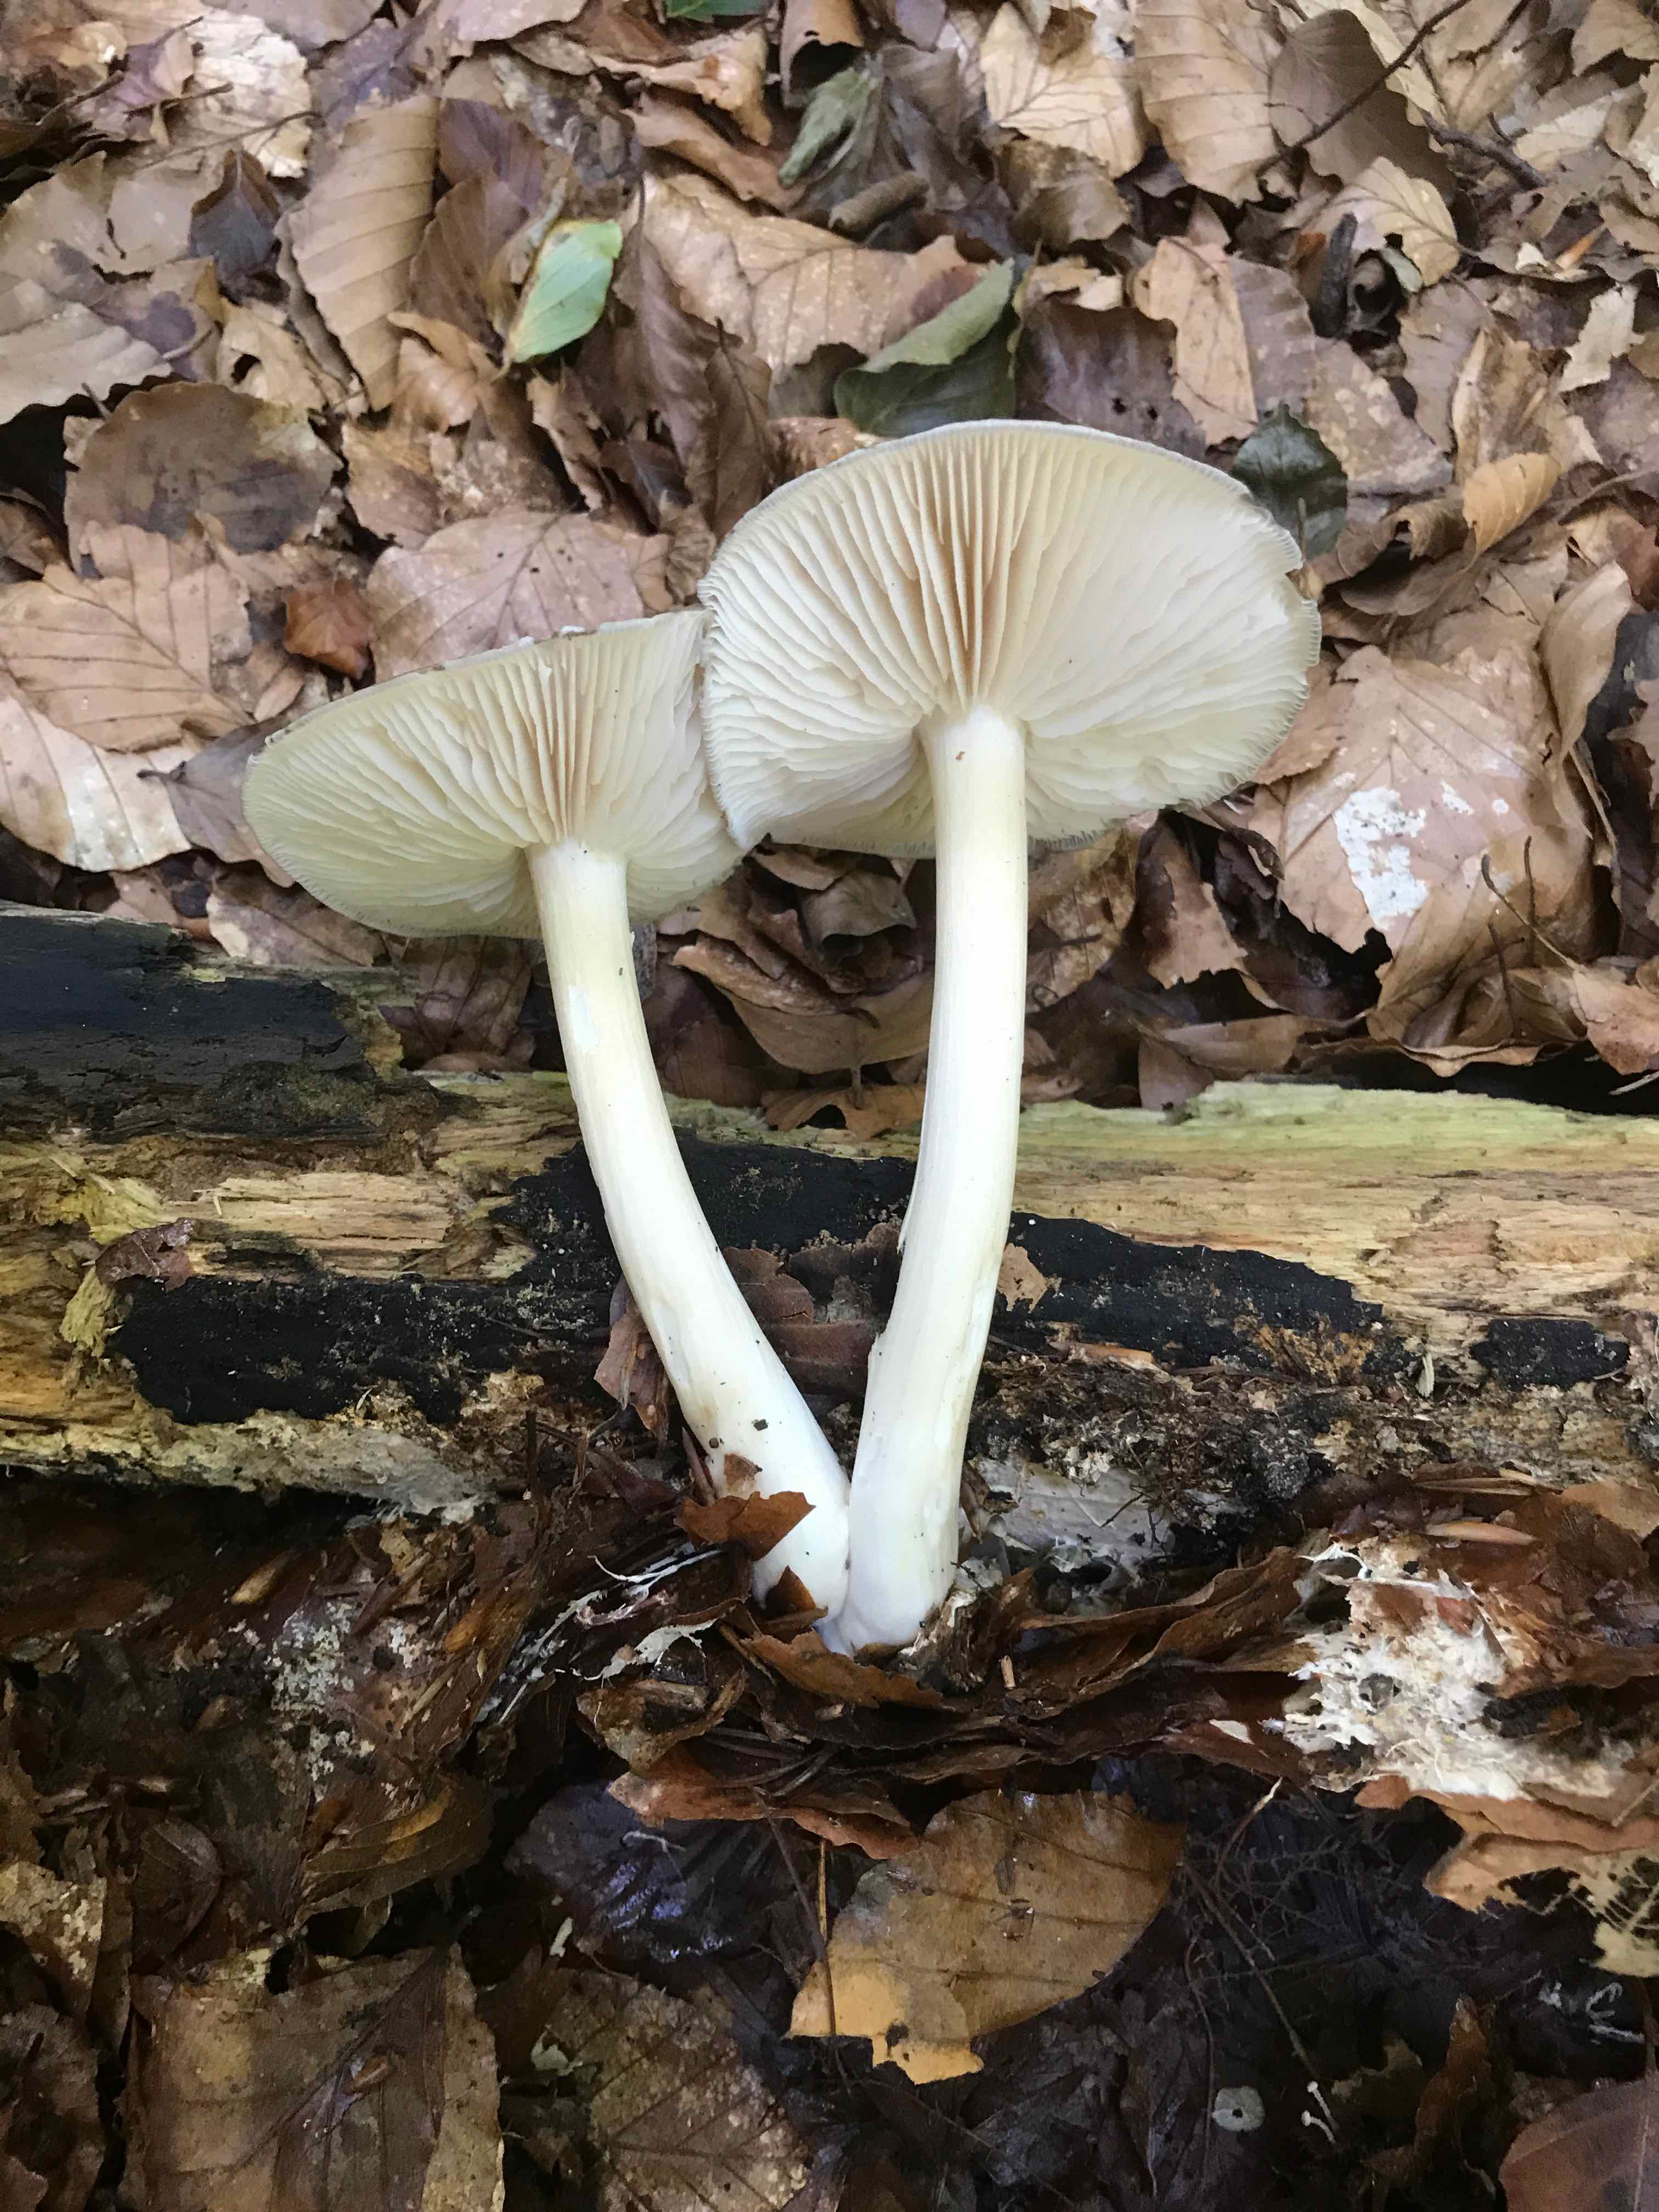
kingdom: Fungi
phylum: Basidiomycota
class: Agaricomycetes
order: Agaricales
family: Tricholomataceae
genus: Megacollybia
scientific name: Megacollybia platyphylla
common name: bredbladet væbnerhat
